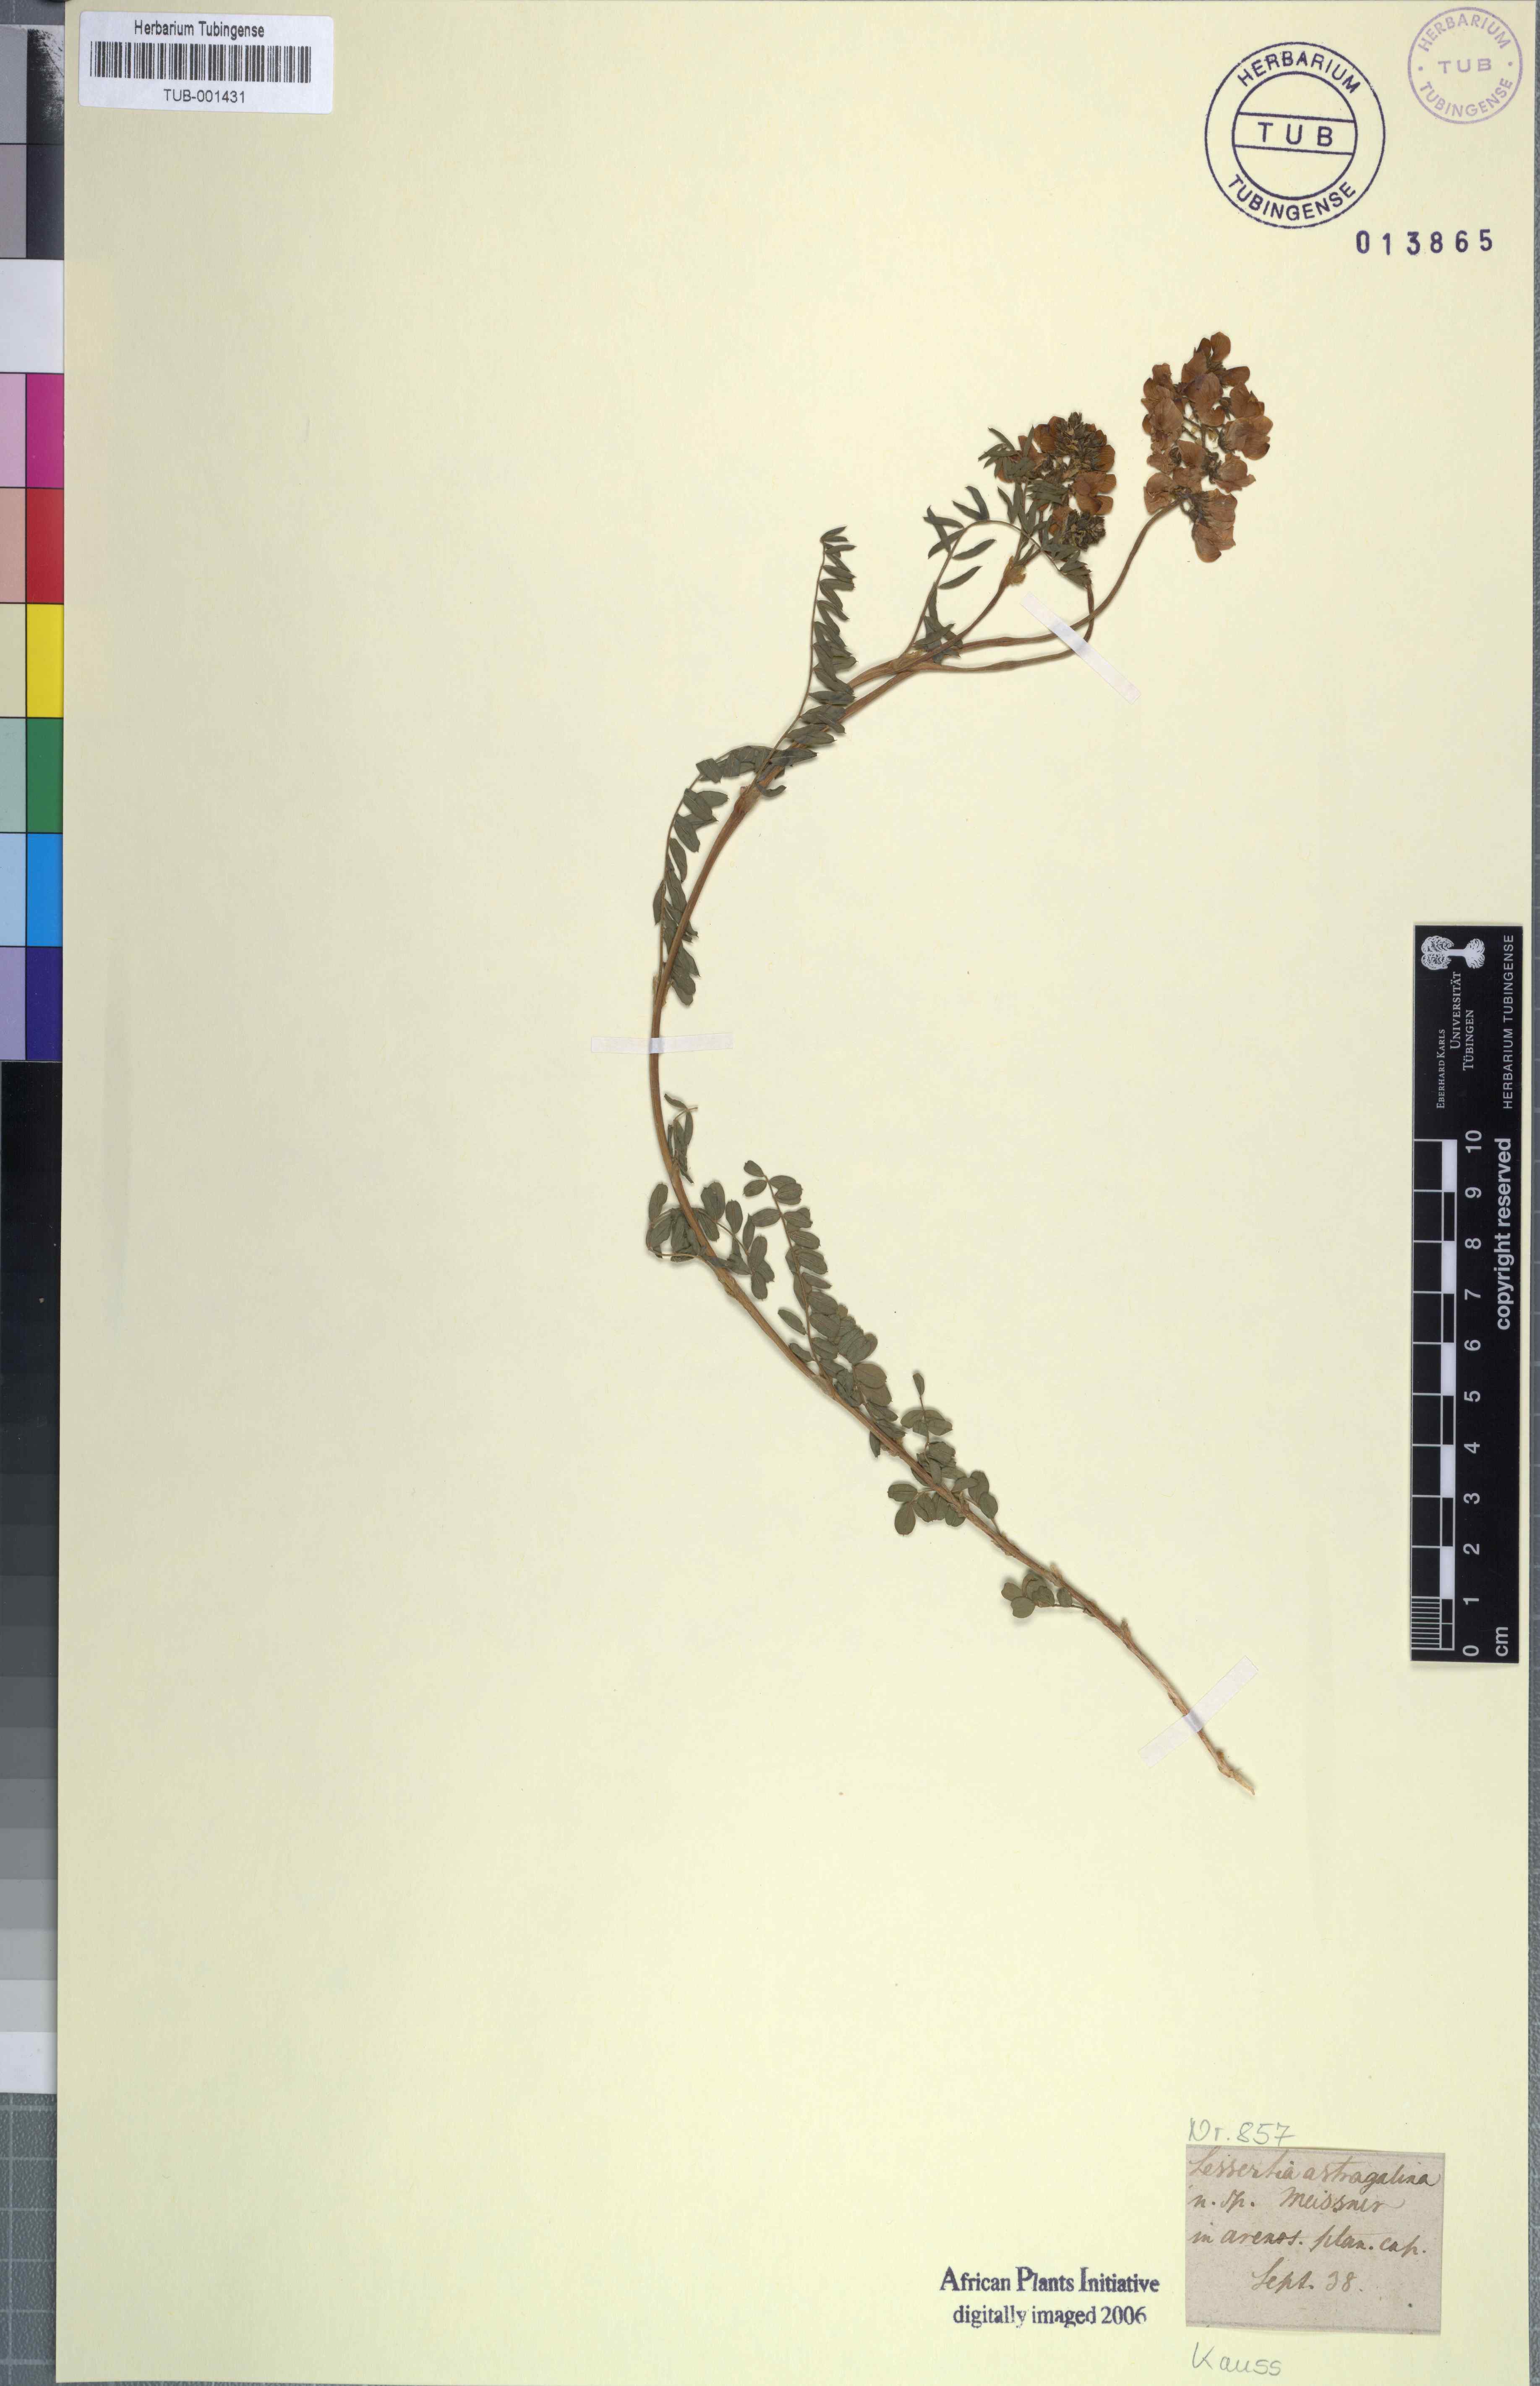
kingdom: Plantae
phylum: Tracheophyta
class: Magnoliopsida
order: Fabales
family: Fabaceae
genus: Lessertia
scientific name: Lessertia capensis
